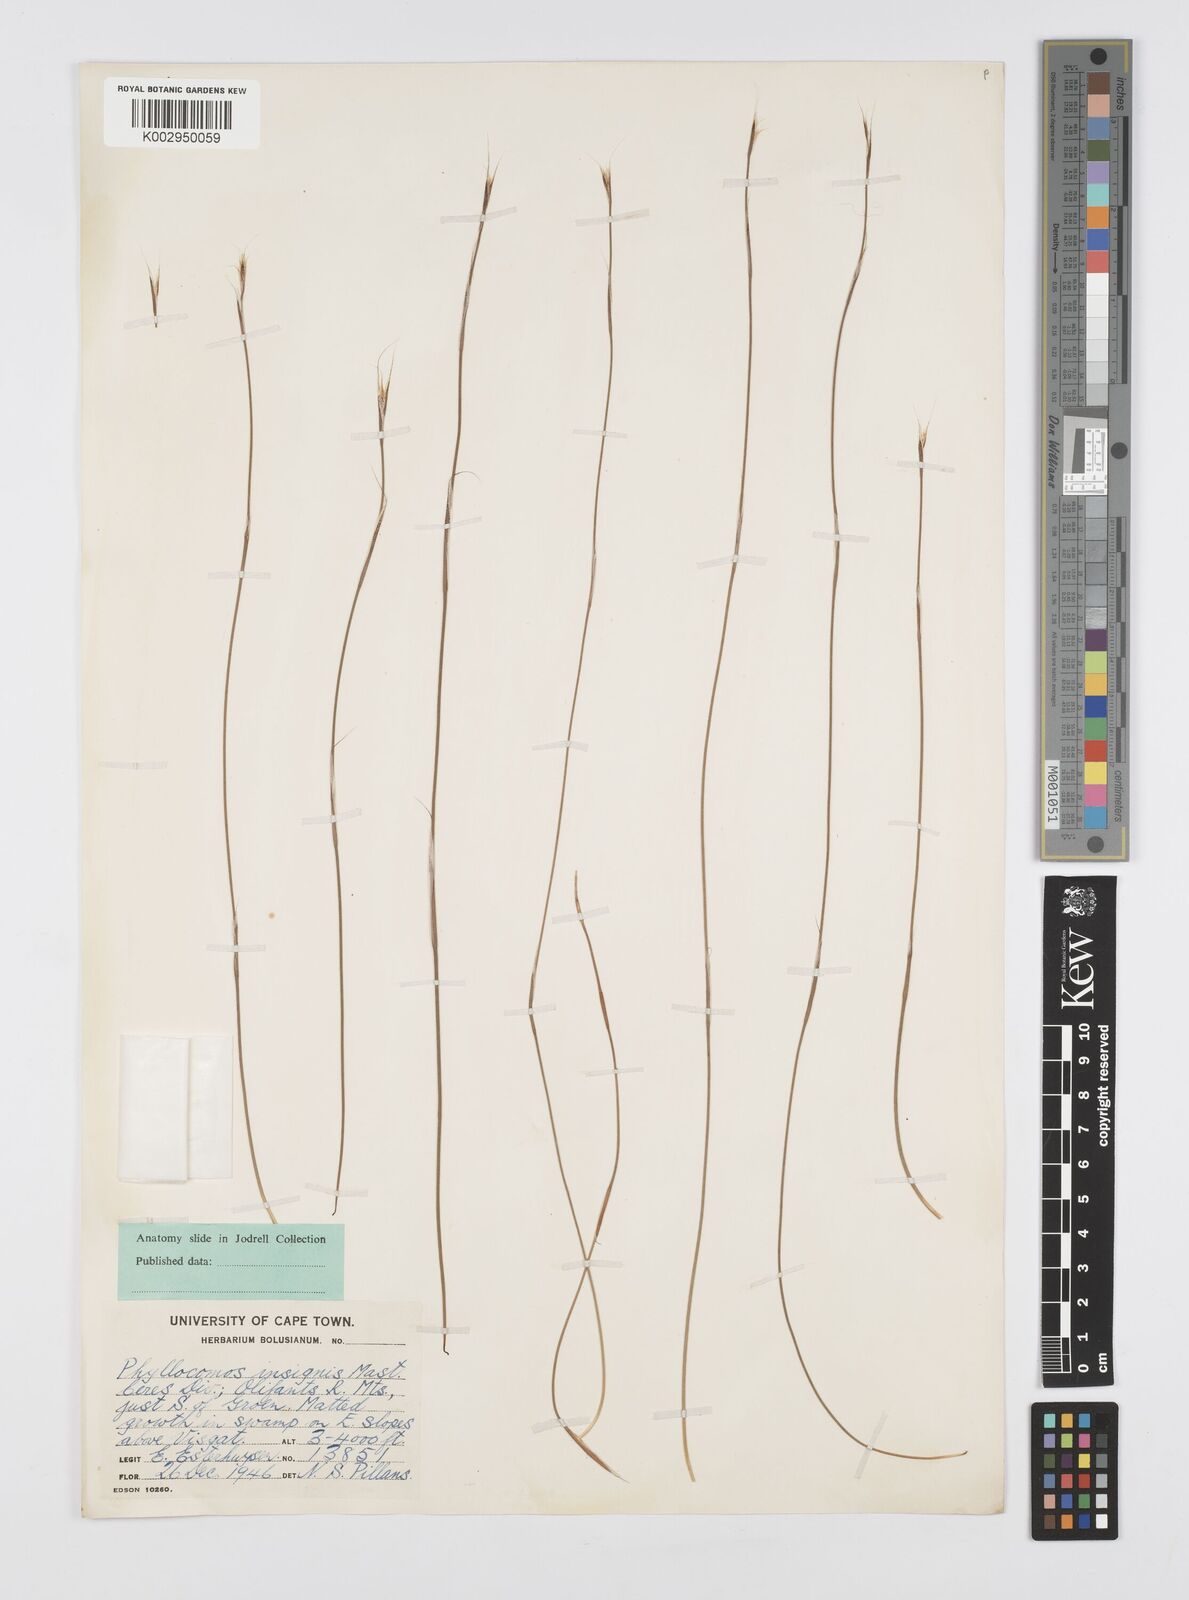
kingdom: Plantae
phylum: Tracheophyta
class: Liliopsida
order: Poales
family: Restionaceae
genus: Anthochortus
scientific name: Anthochortus insignis
